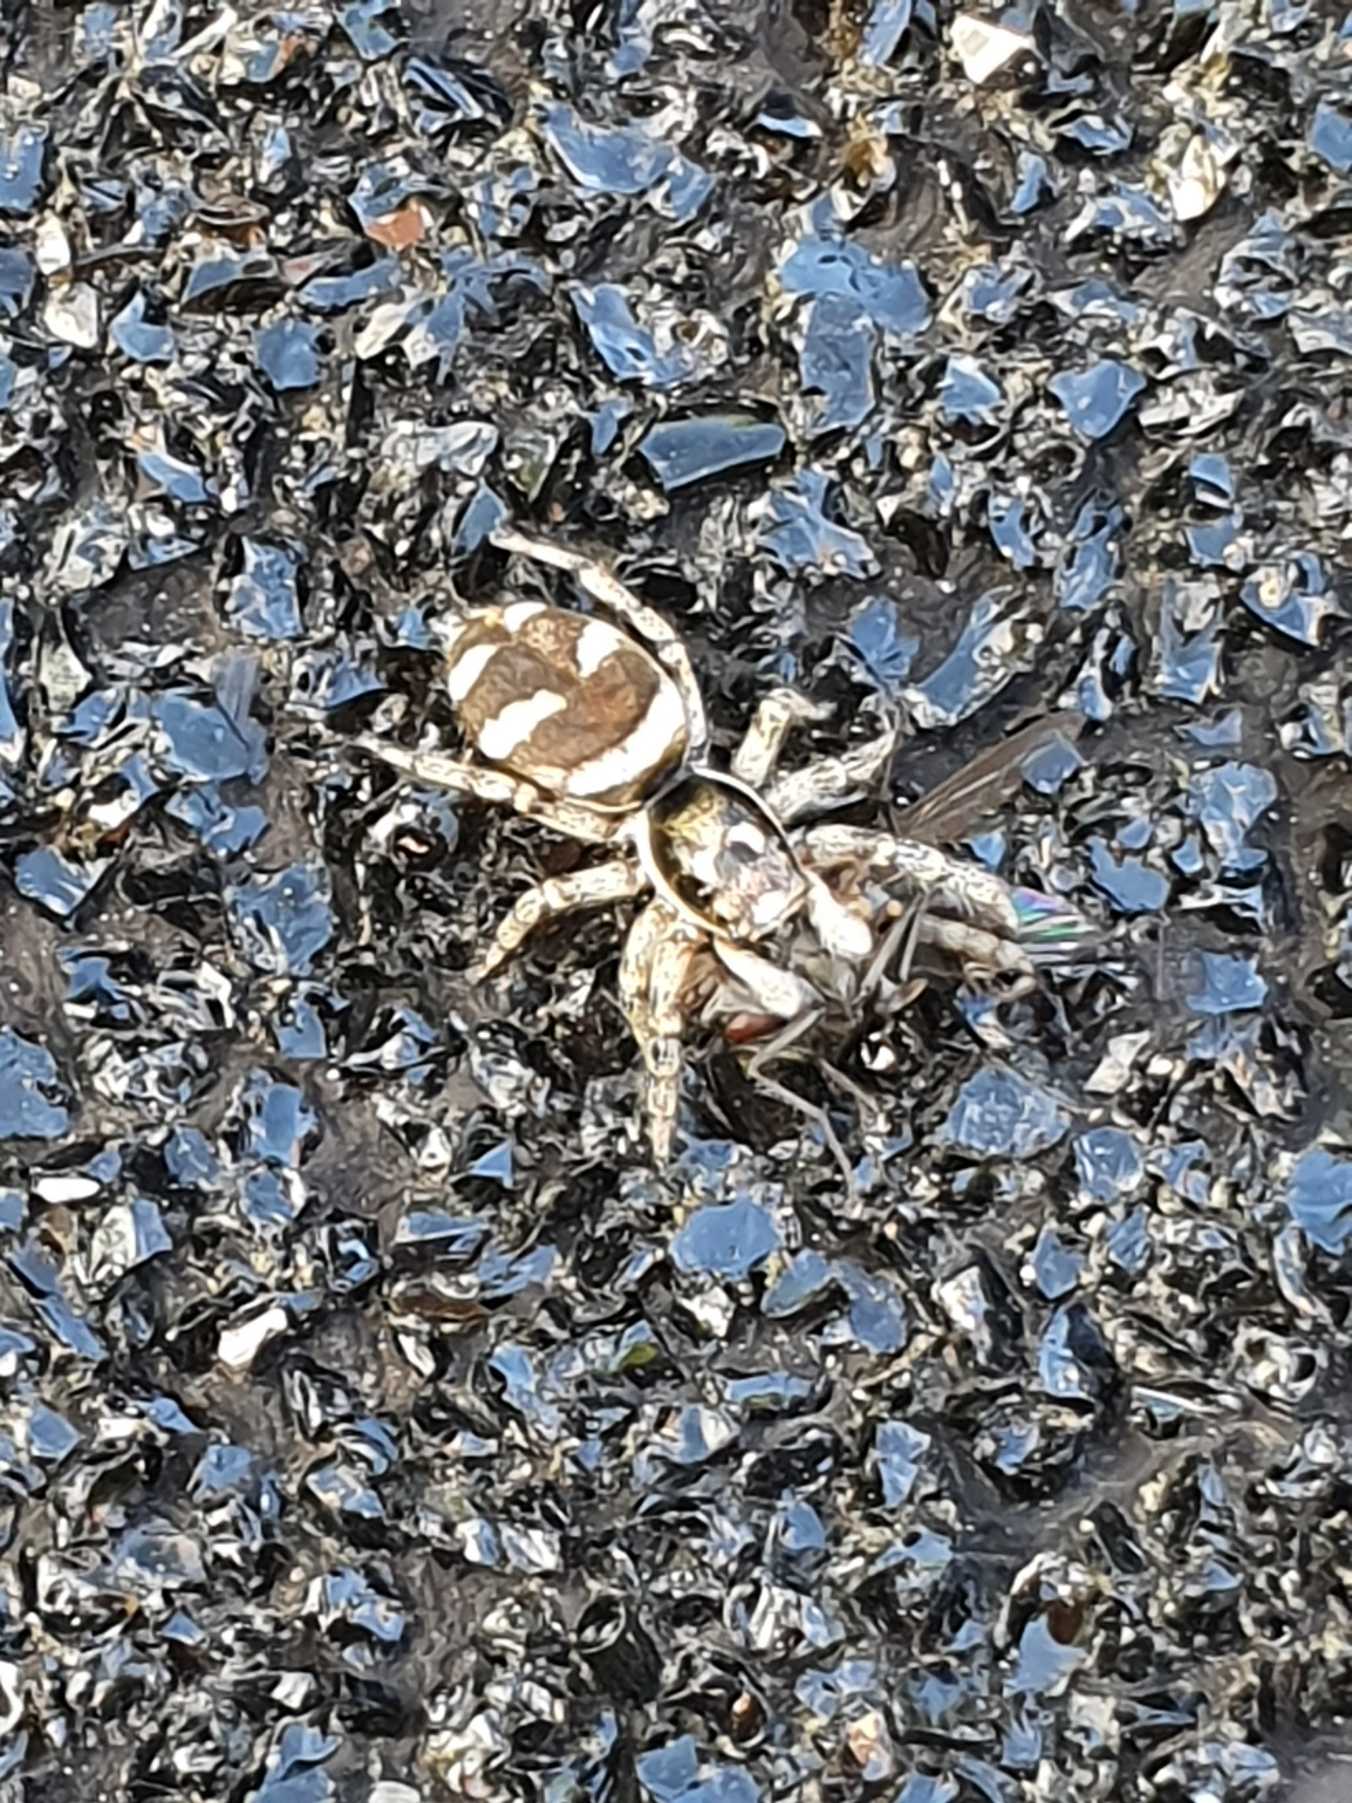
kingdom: Animalia
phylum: Arthropoda
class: Arachnida
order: Araneae
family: Salticidae
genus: Salticus
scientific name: Salticus scenicus
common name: Almindelig zebraedderkop
